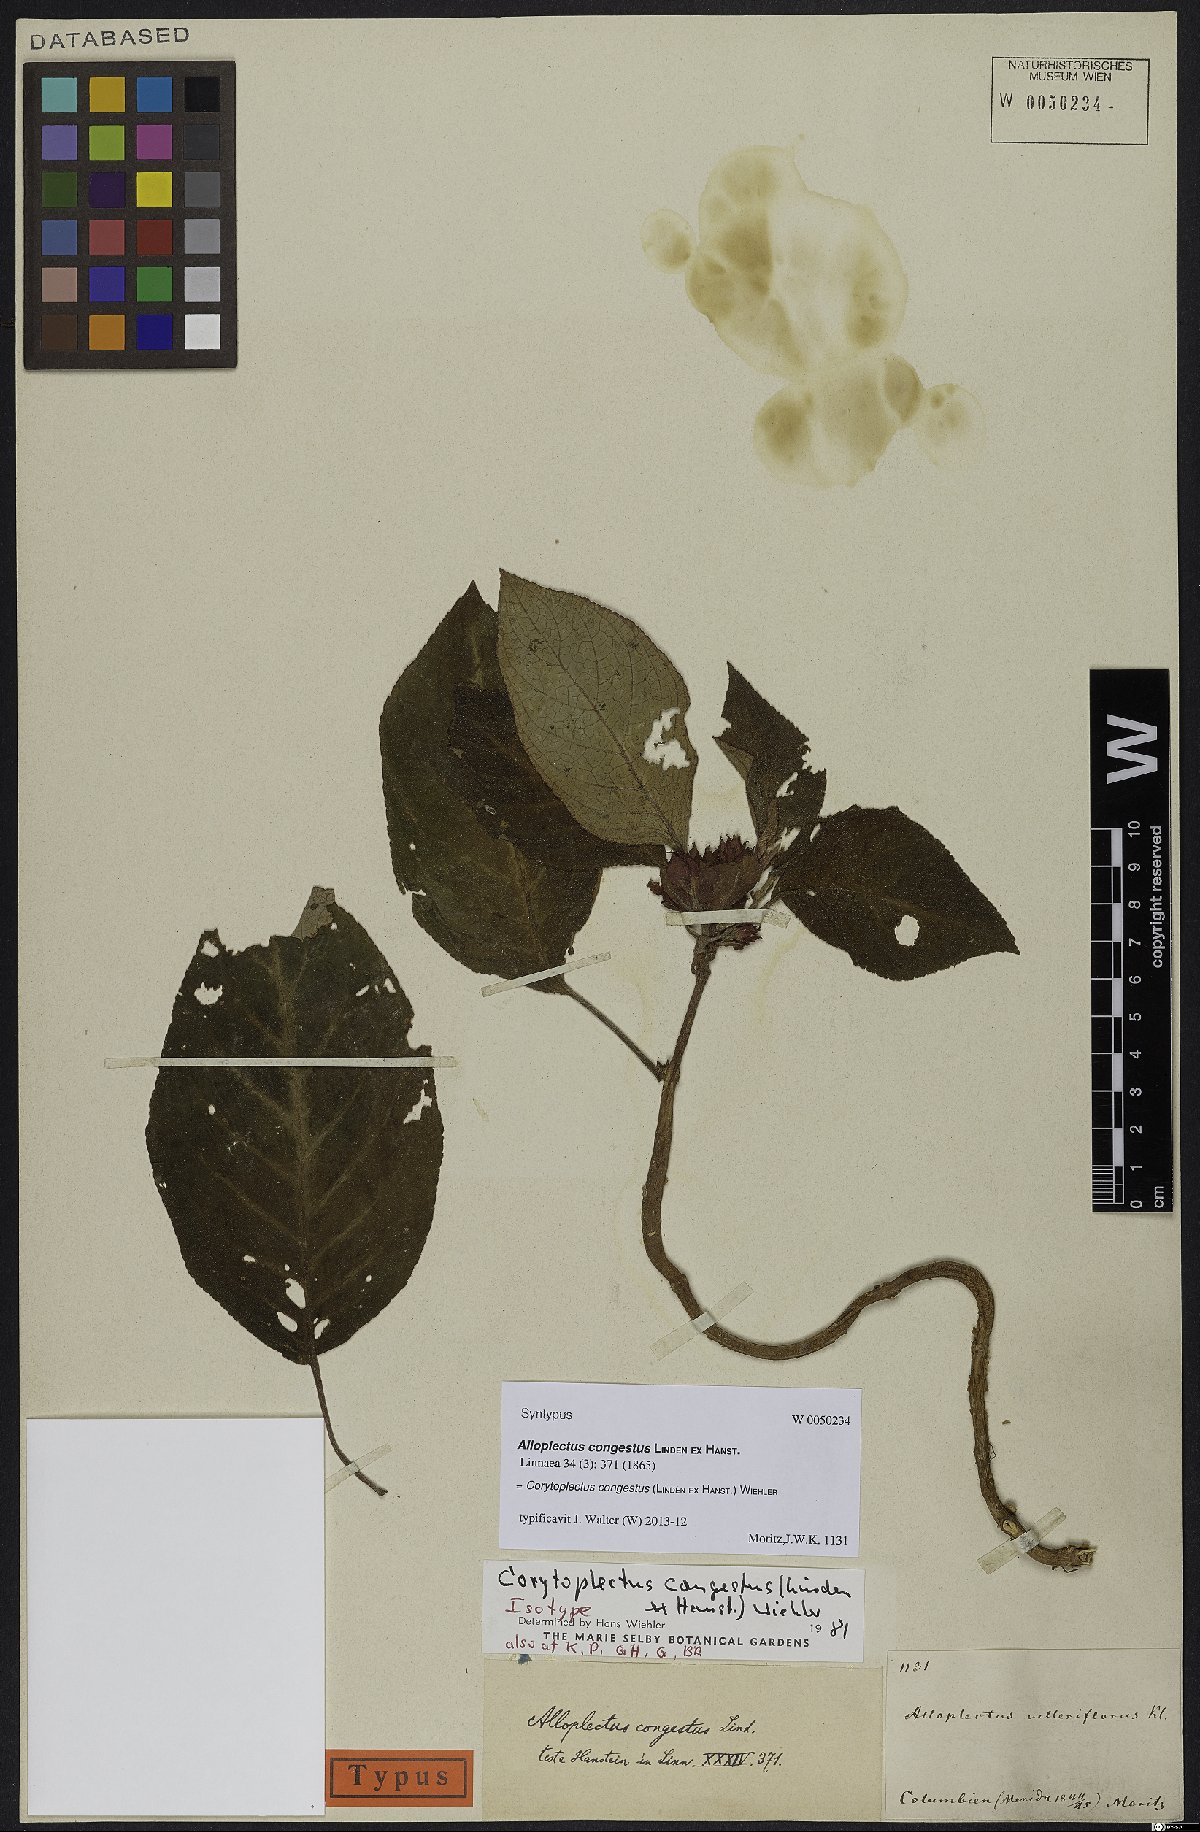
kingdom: Plantae
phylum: Tracheophyta
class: Magnoliopsida
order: Lamiales
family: Gesneriaceae
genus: Corytoplectus
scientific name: Corytoplectus congestus
